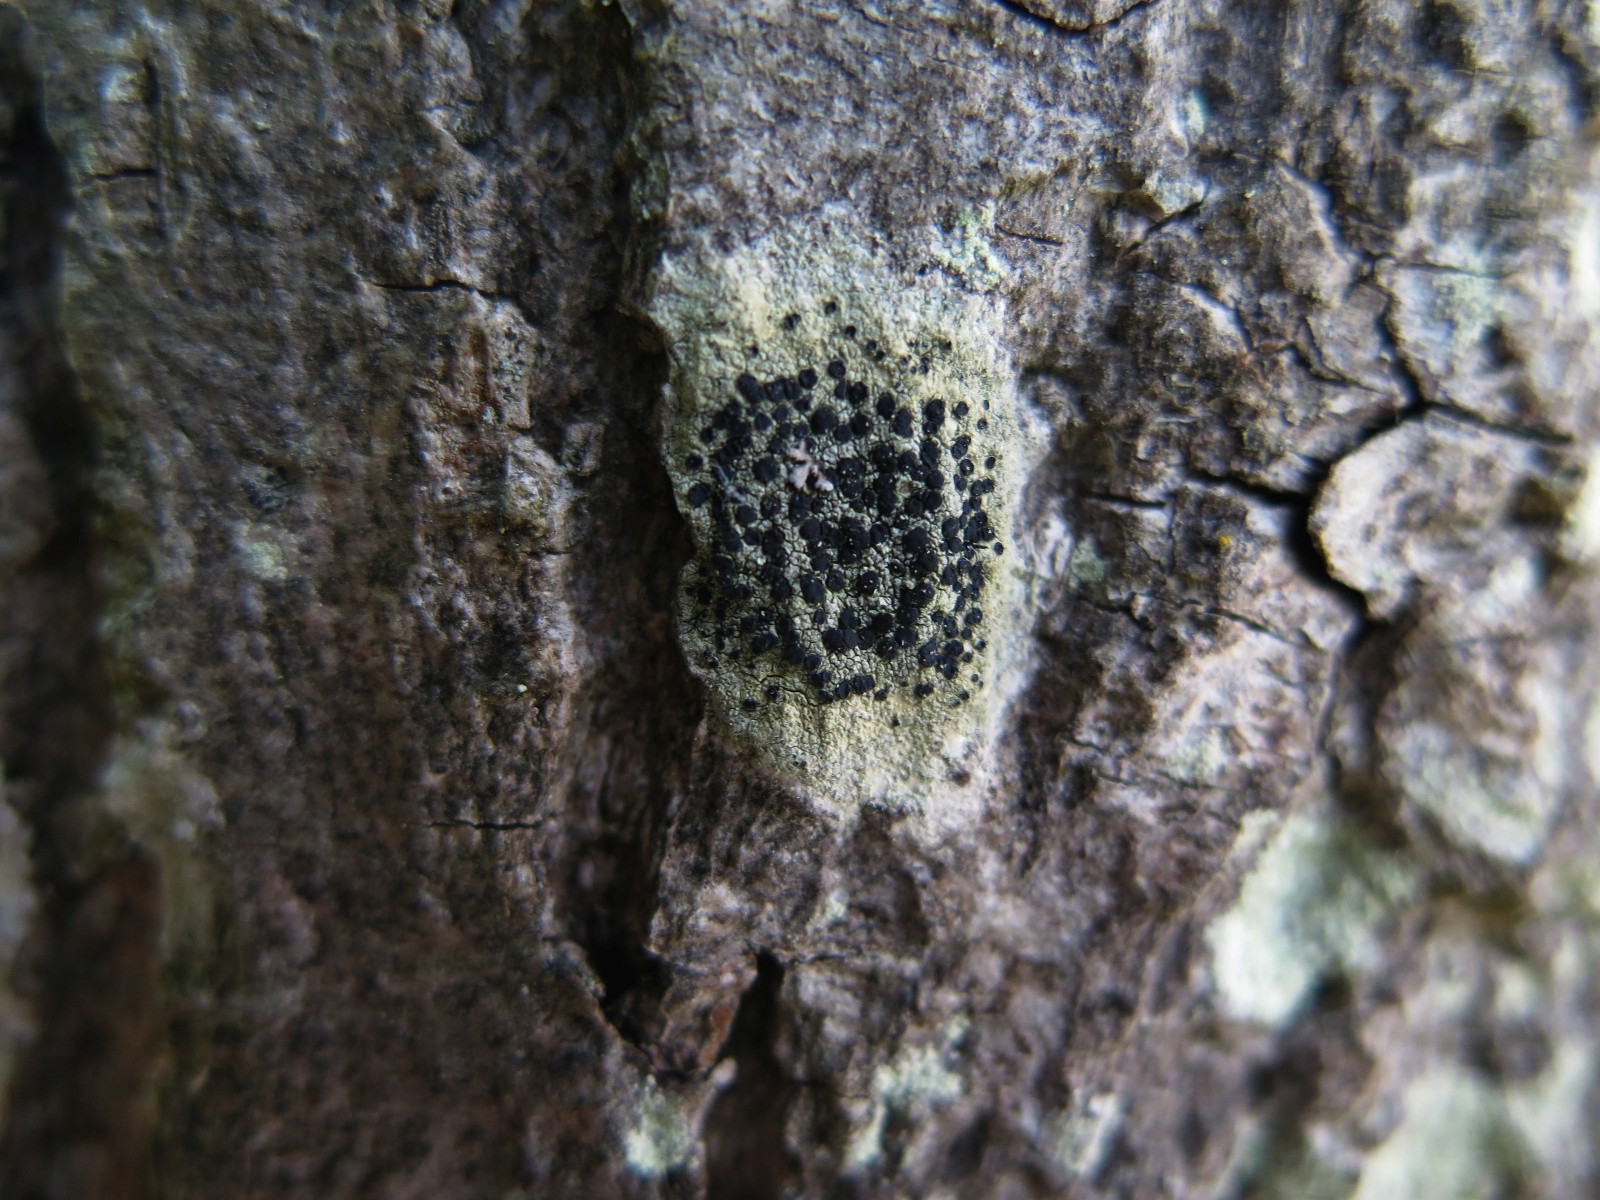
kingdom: Fungi
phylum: Ascomycota
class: Lecanoromycetes
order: Lecanorales
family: Lecanoraceae
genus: Lecidella
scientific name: Lecidella elaeochroma
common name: grågrøn skivelav
